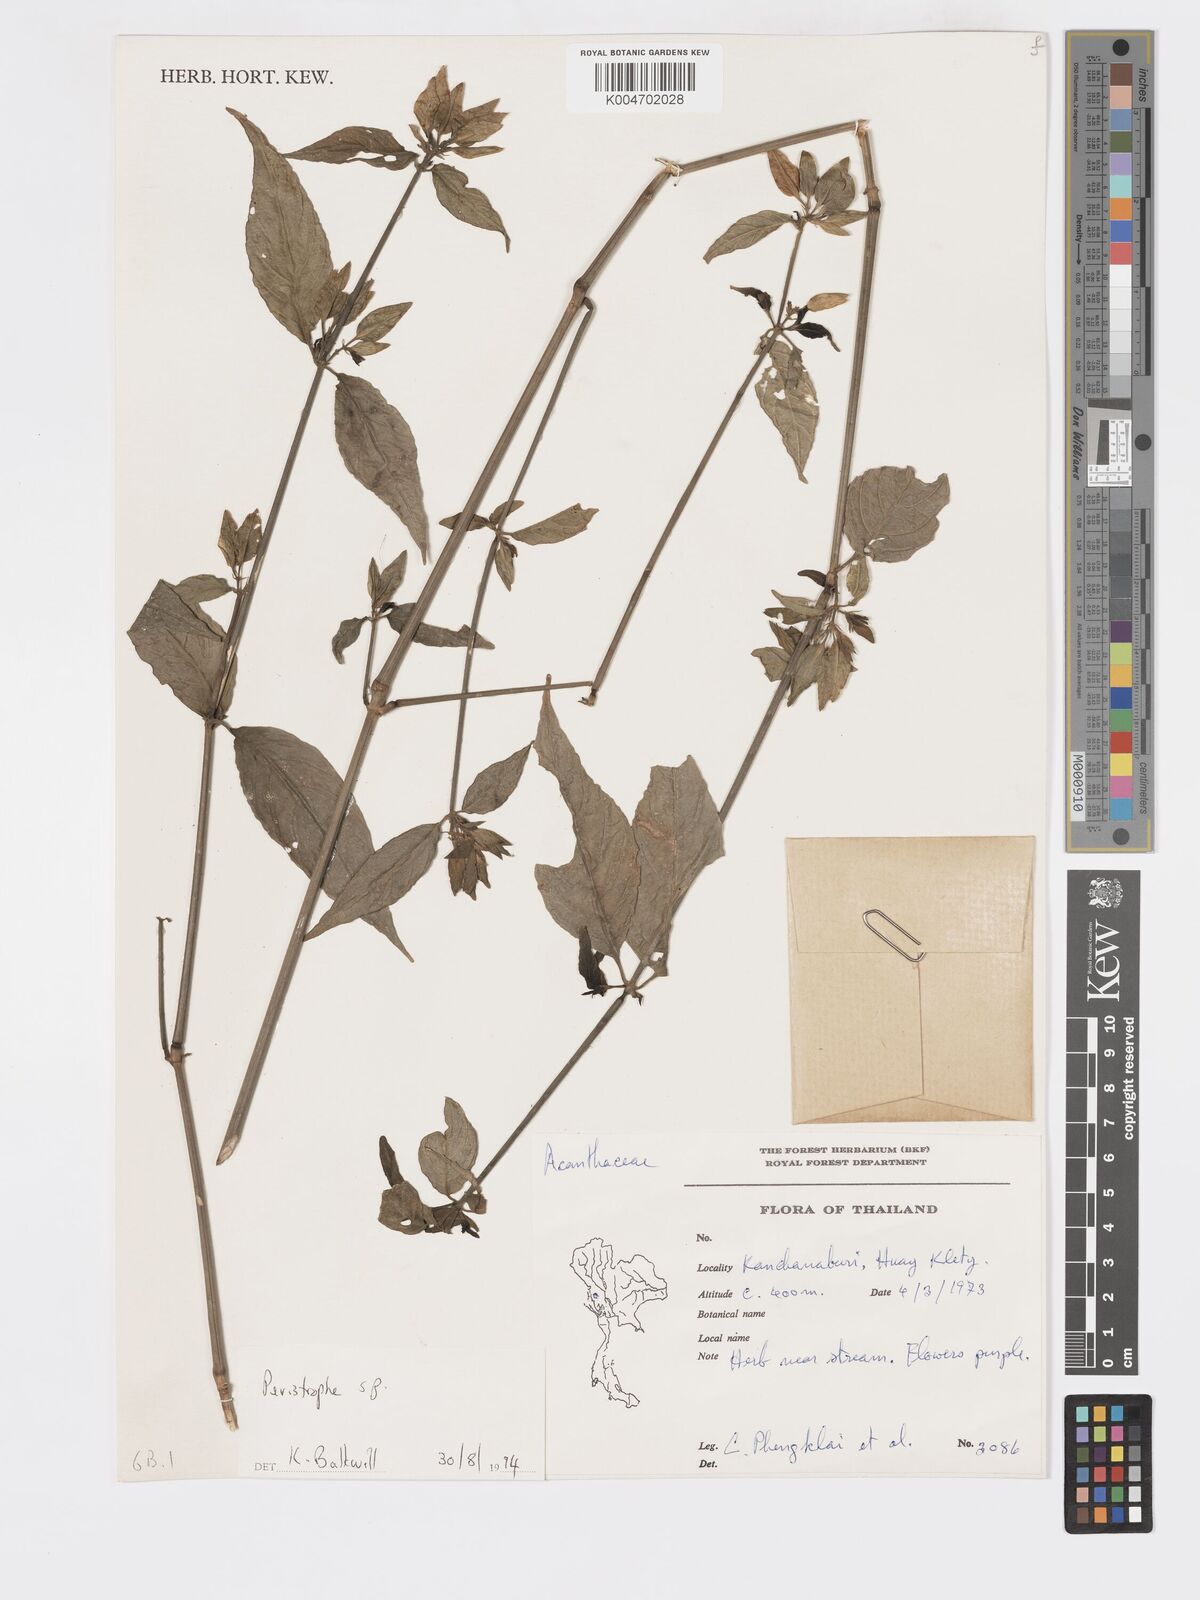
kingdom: Plantae
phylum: Tracheophyta
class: Magnoliopsida
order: Lamiales
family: Acanthaceae
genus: Dicliptera
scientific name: Dicliptera
